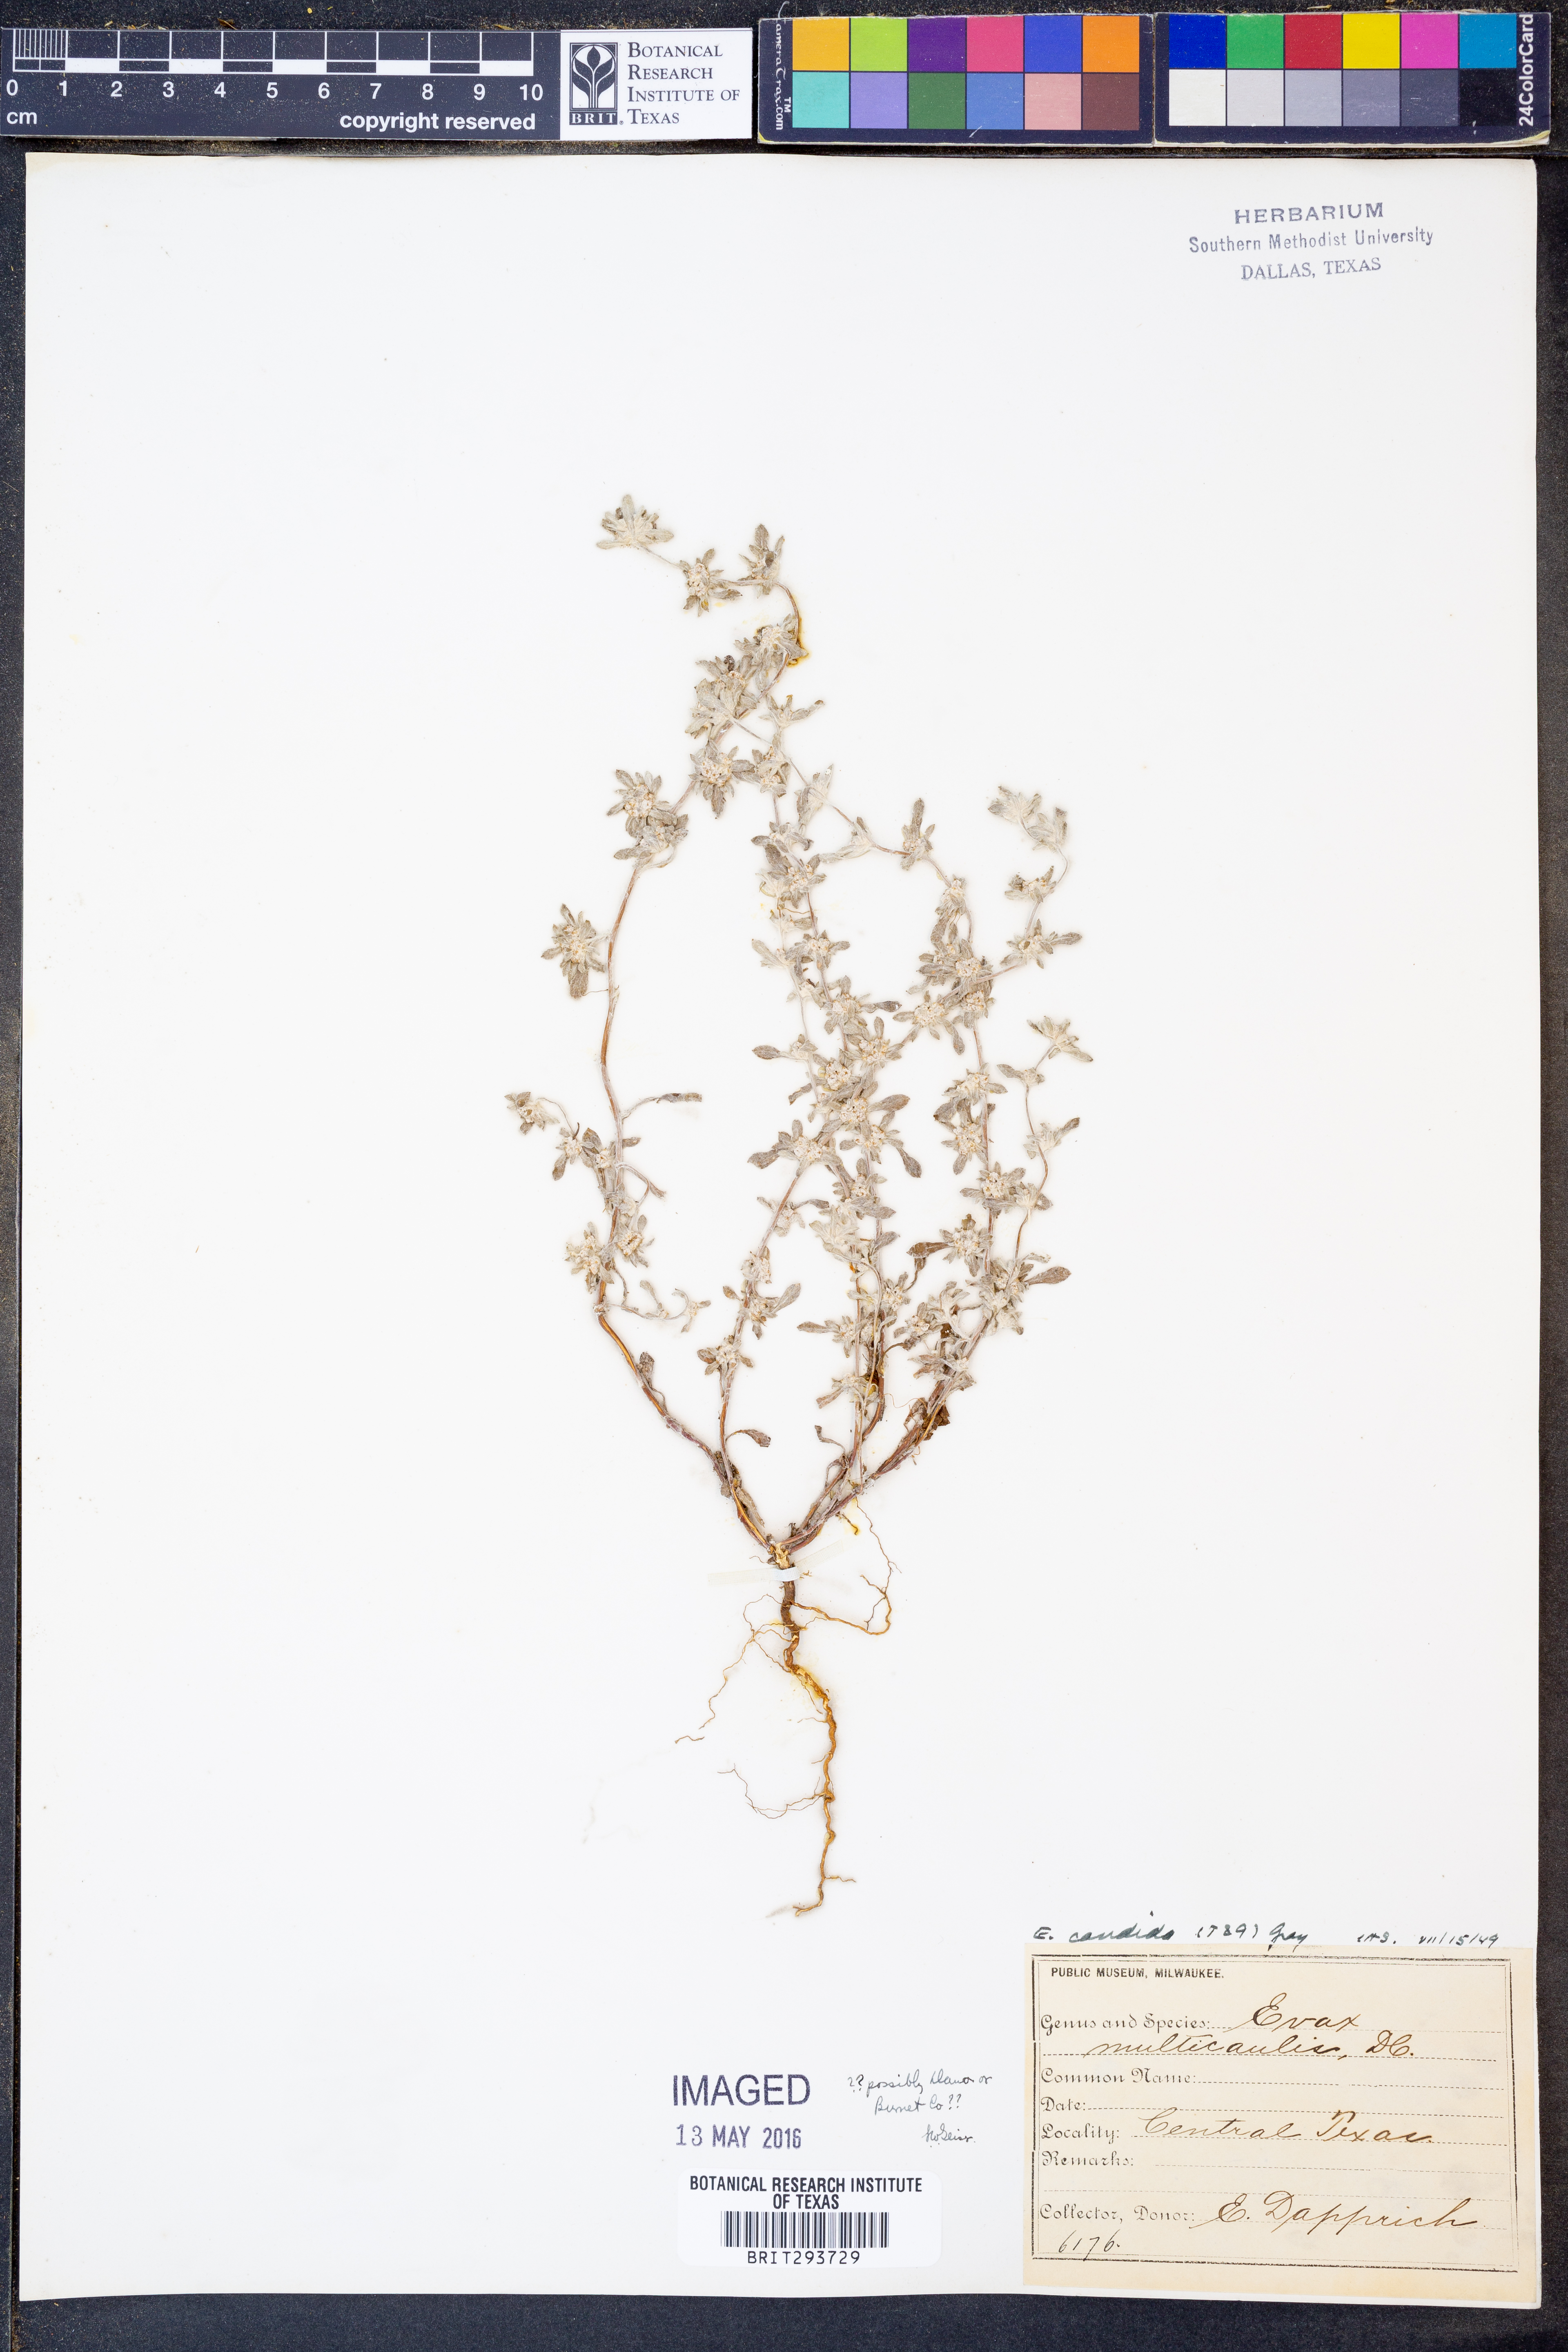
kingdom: Plantae
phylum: Tracheophyta
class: Magnoliopsida
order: Asterales
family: Asteraceae
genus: Diaperia
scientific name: Diaperia candida
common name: Silver rabbit-tobacco
